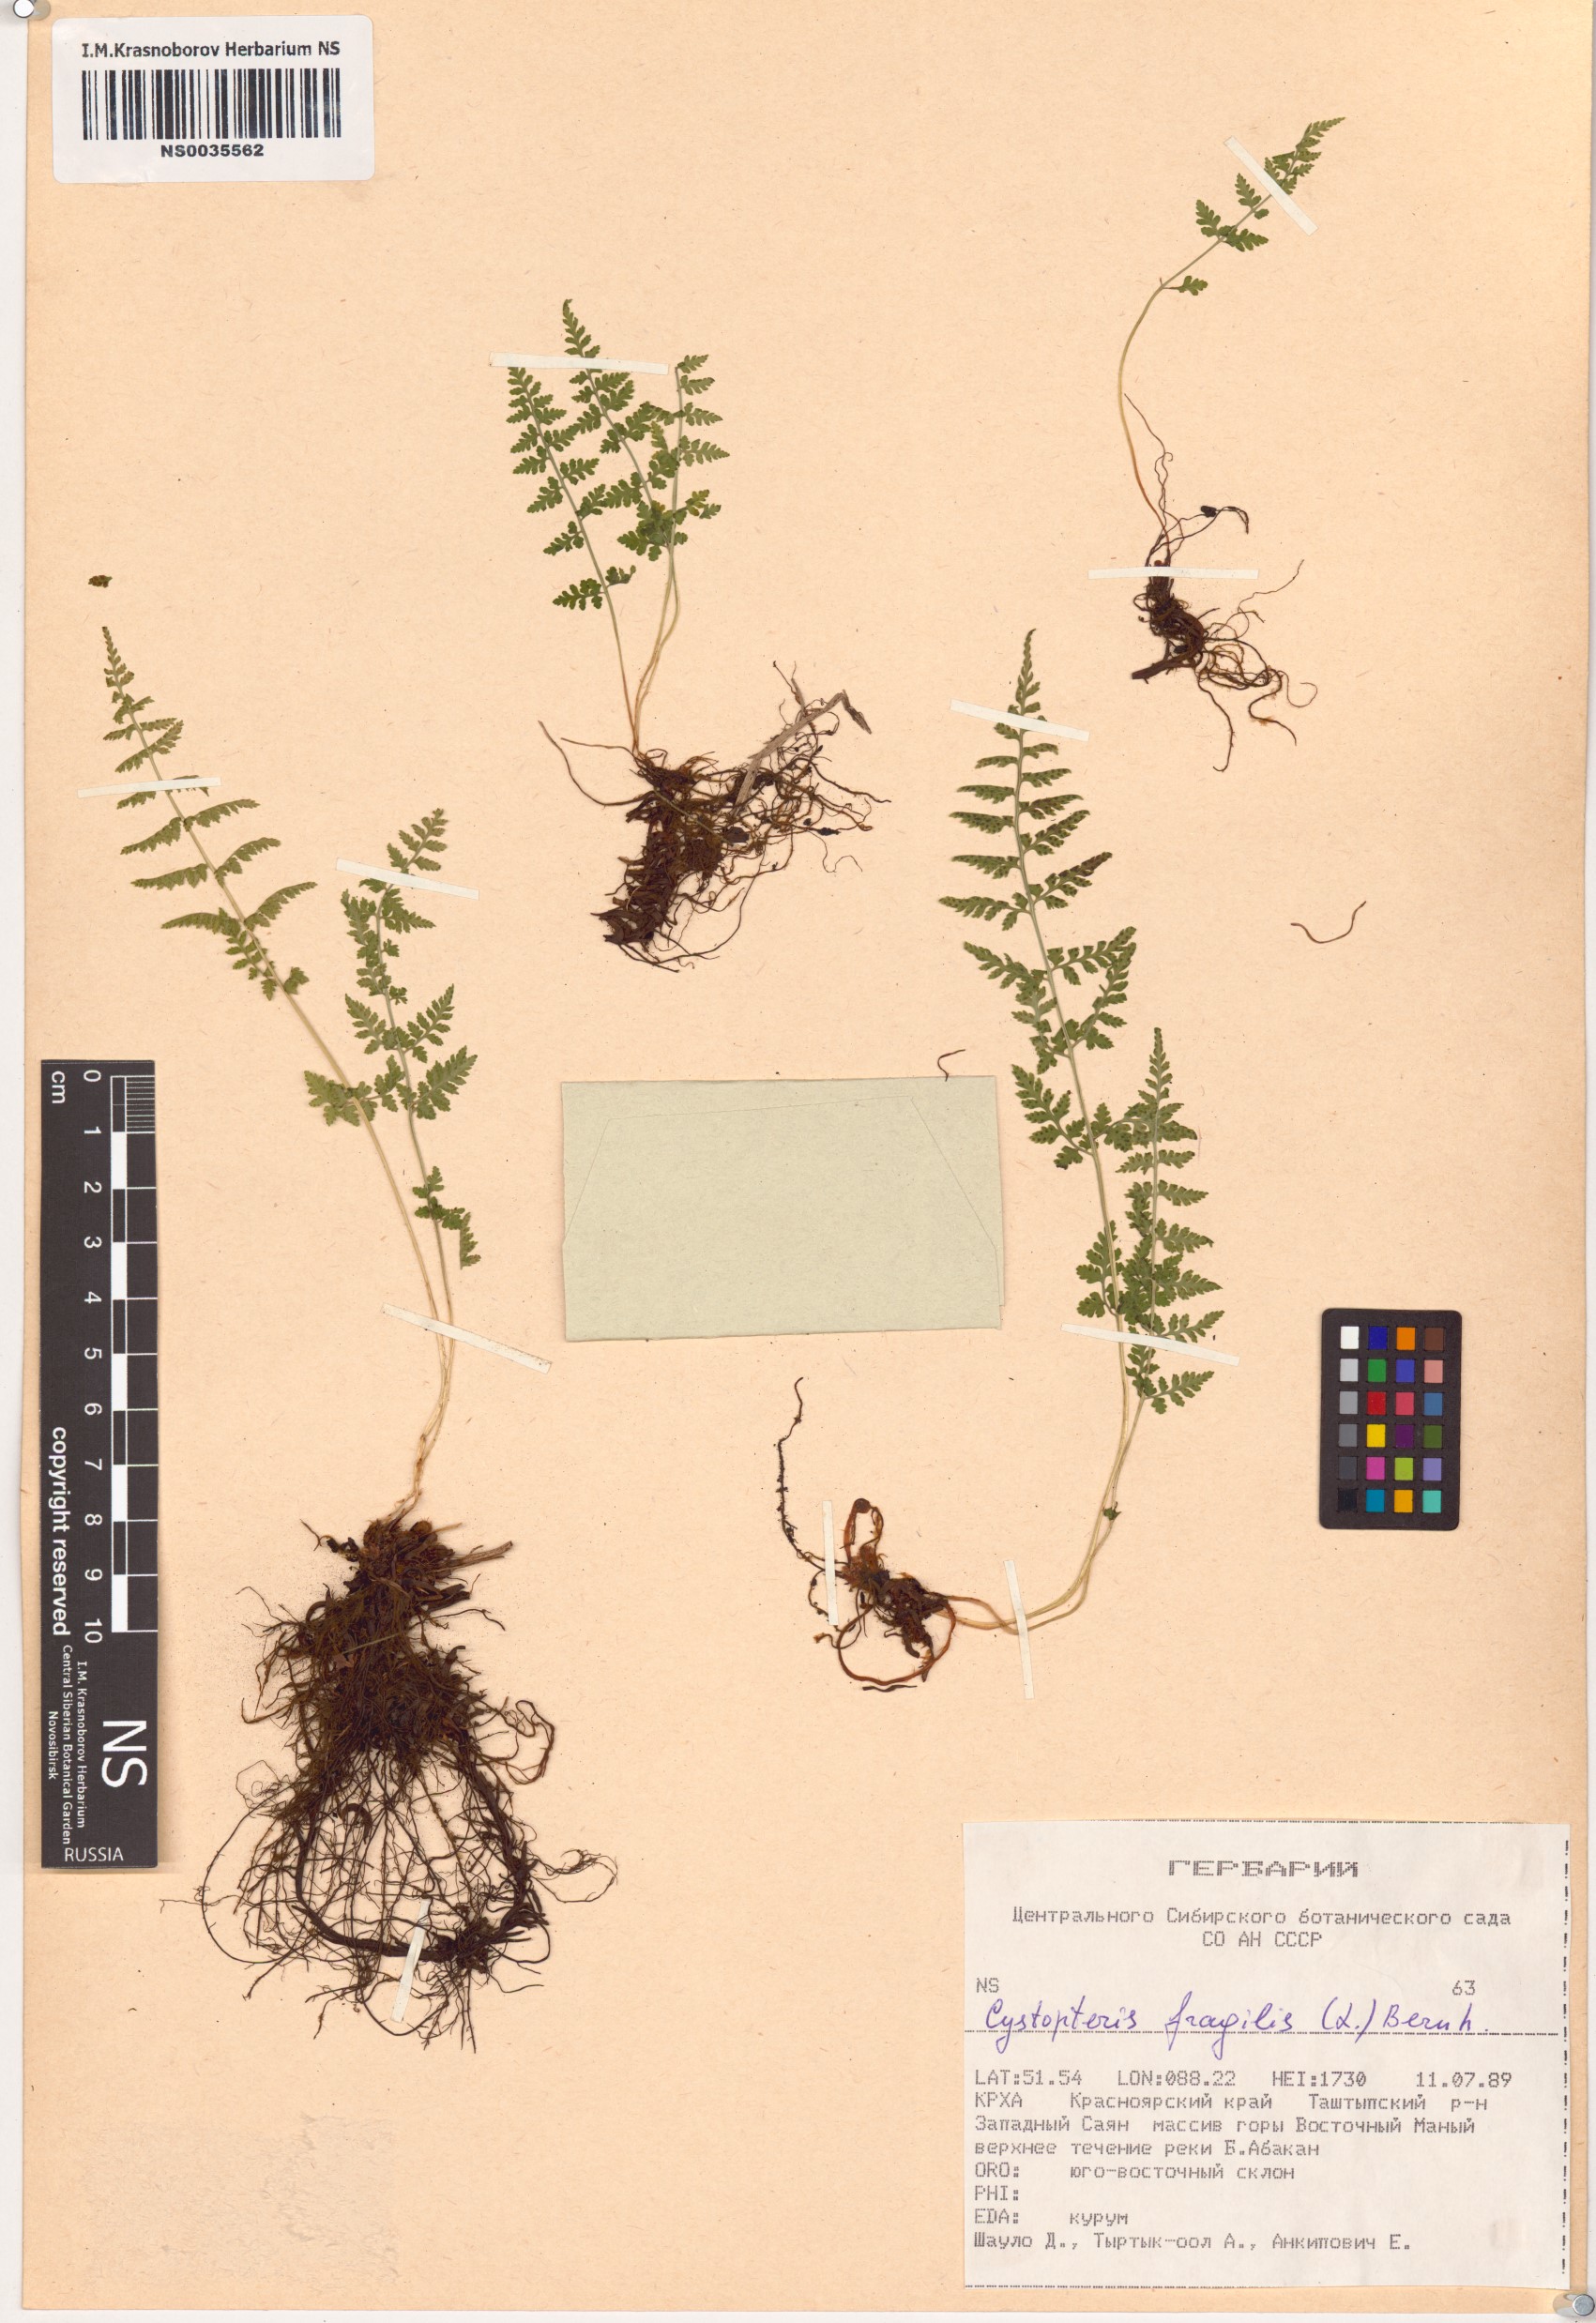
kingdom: Plantae
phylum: Tracheophyta
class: Polypodiopsida
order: Polypodiales
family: Cystopteridaceae
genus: Cystopteris
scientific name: Cystopteris fragilis
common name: Brittle bladder fern
